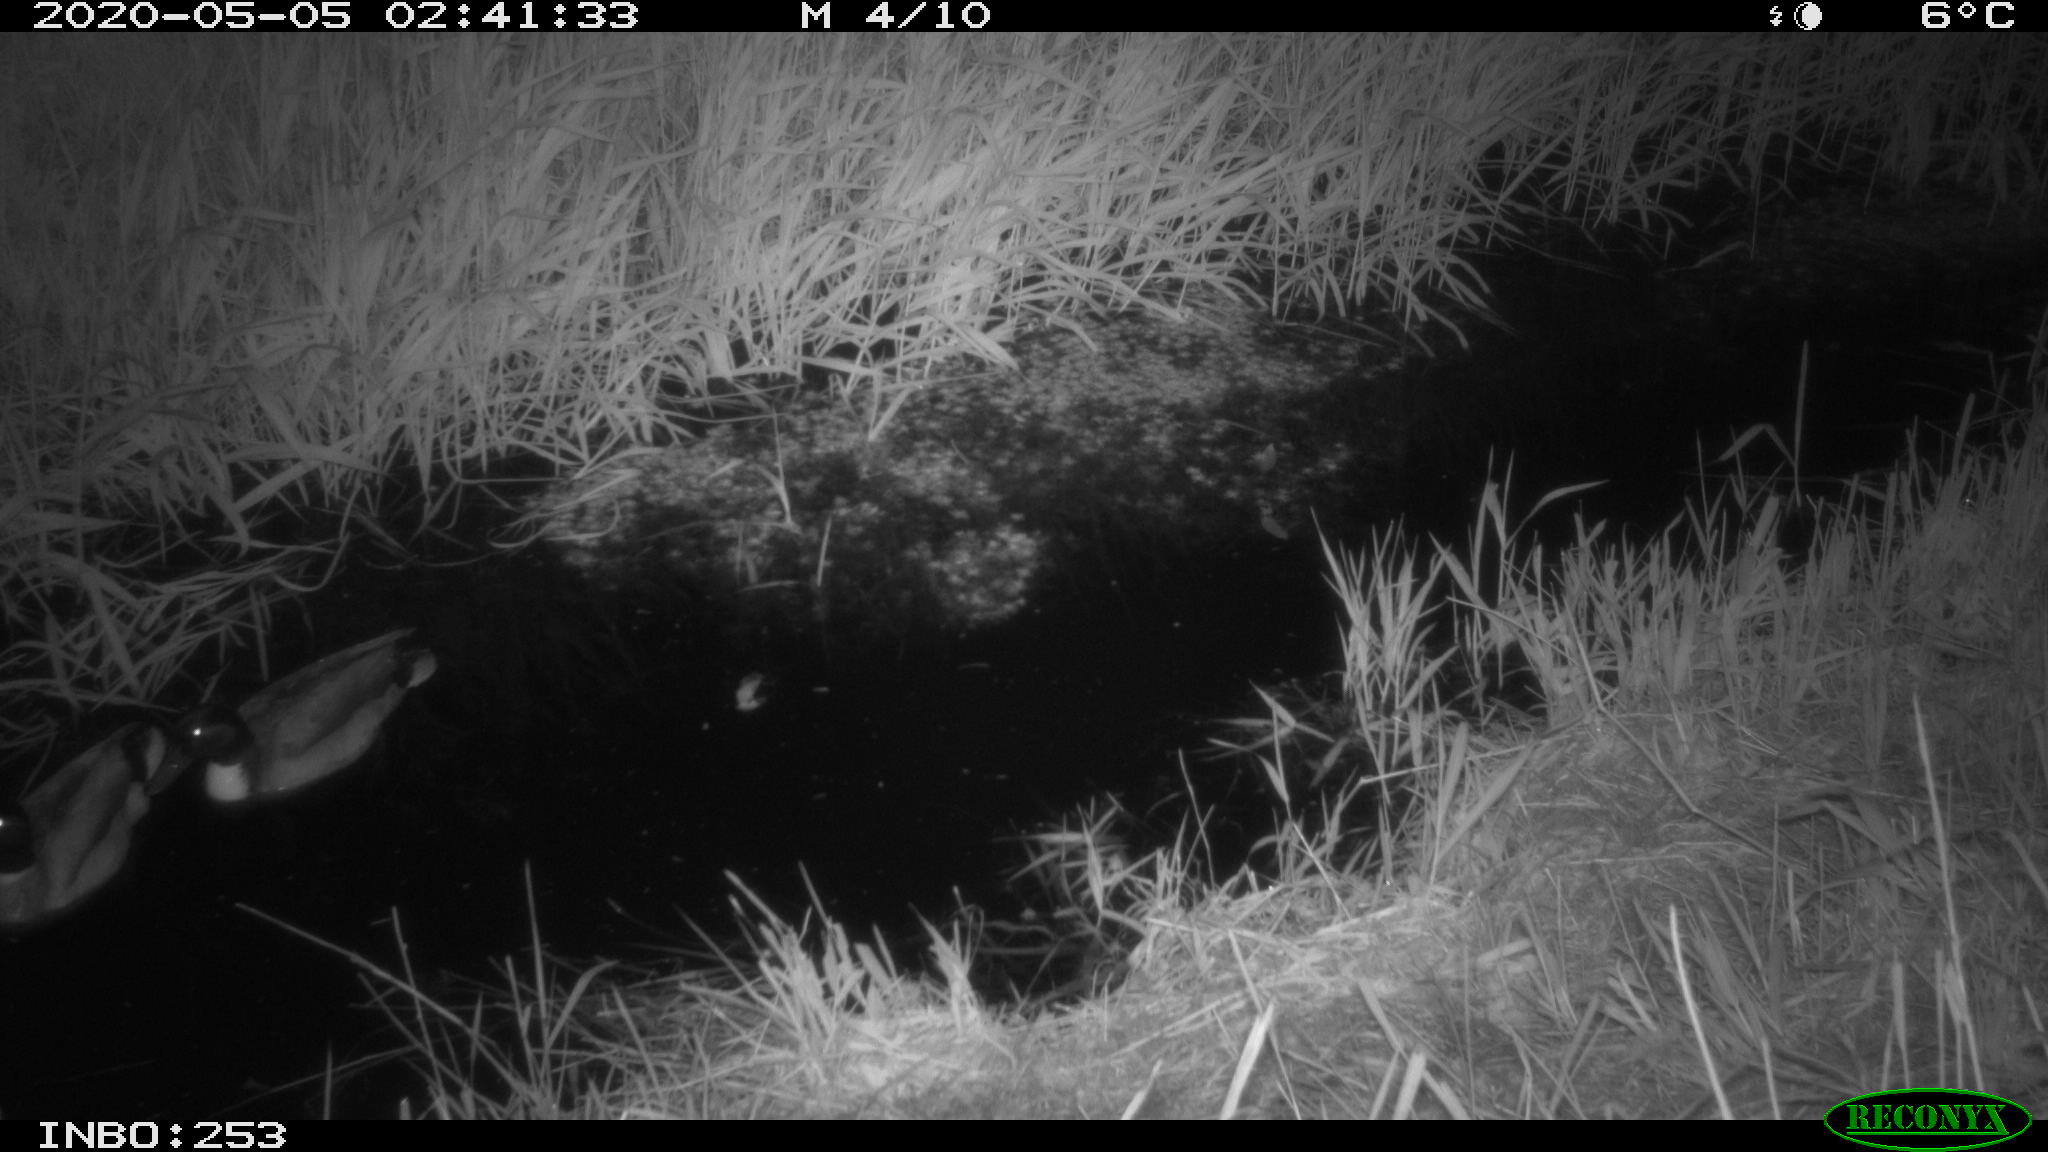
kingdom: Animalia
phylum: Chordata
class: Aves
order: Anseriformes
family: Anatidae
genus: Anas
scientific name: Anas platyrhynchos
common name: Mallard
